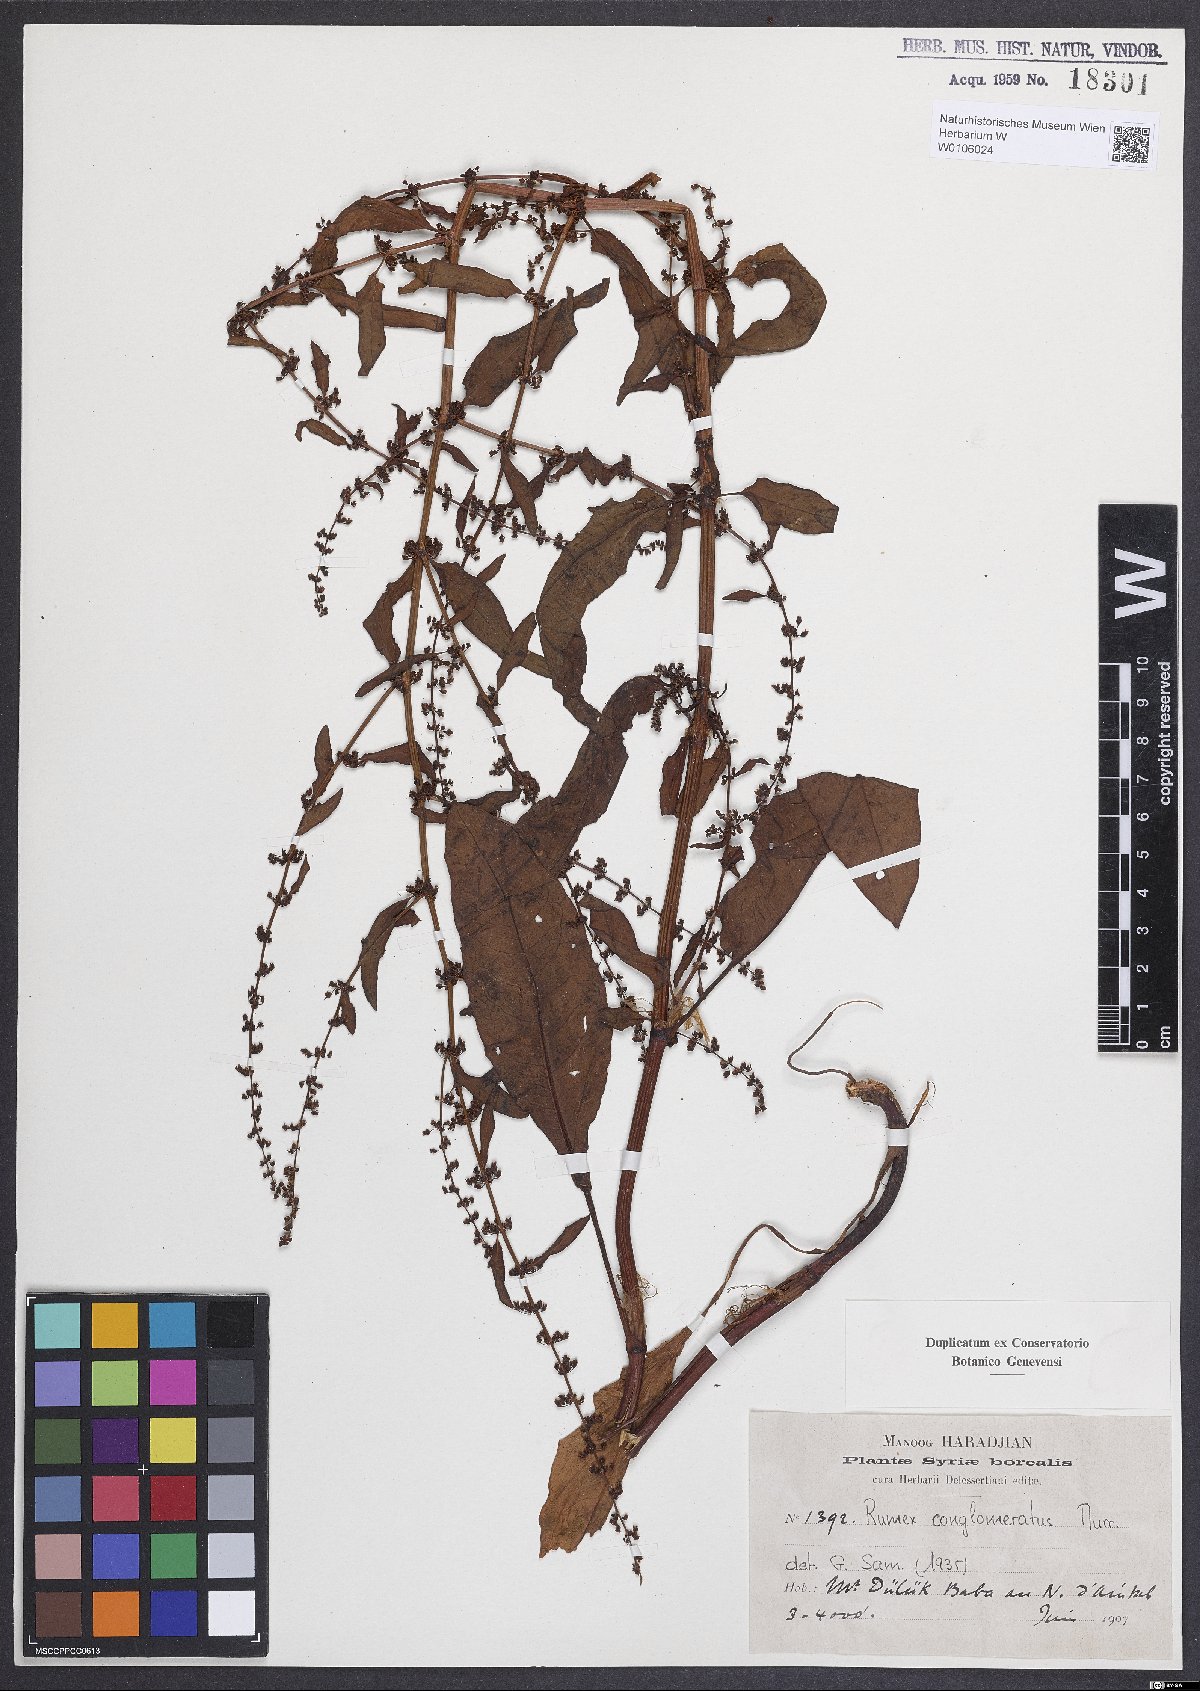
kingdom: Plantae
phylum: Tracheophyta
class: Magnoliopsida
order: Caryophyllales
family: Polygonaceae
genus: Rumex
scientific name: Rumex conglomeratus
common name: Clustered dock
